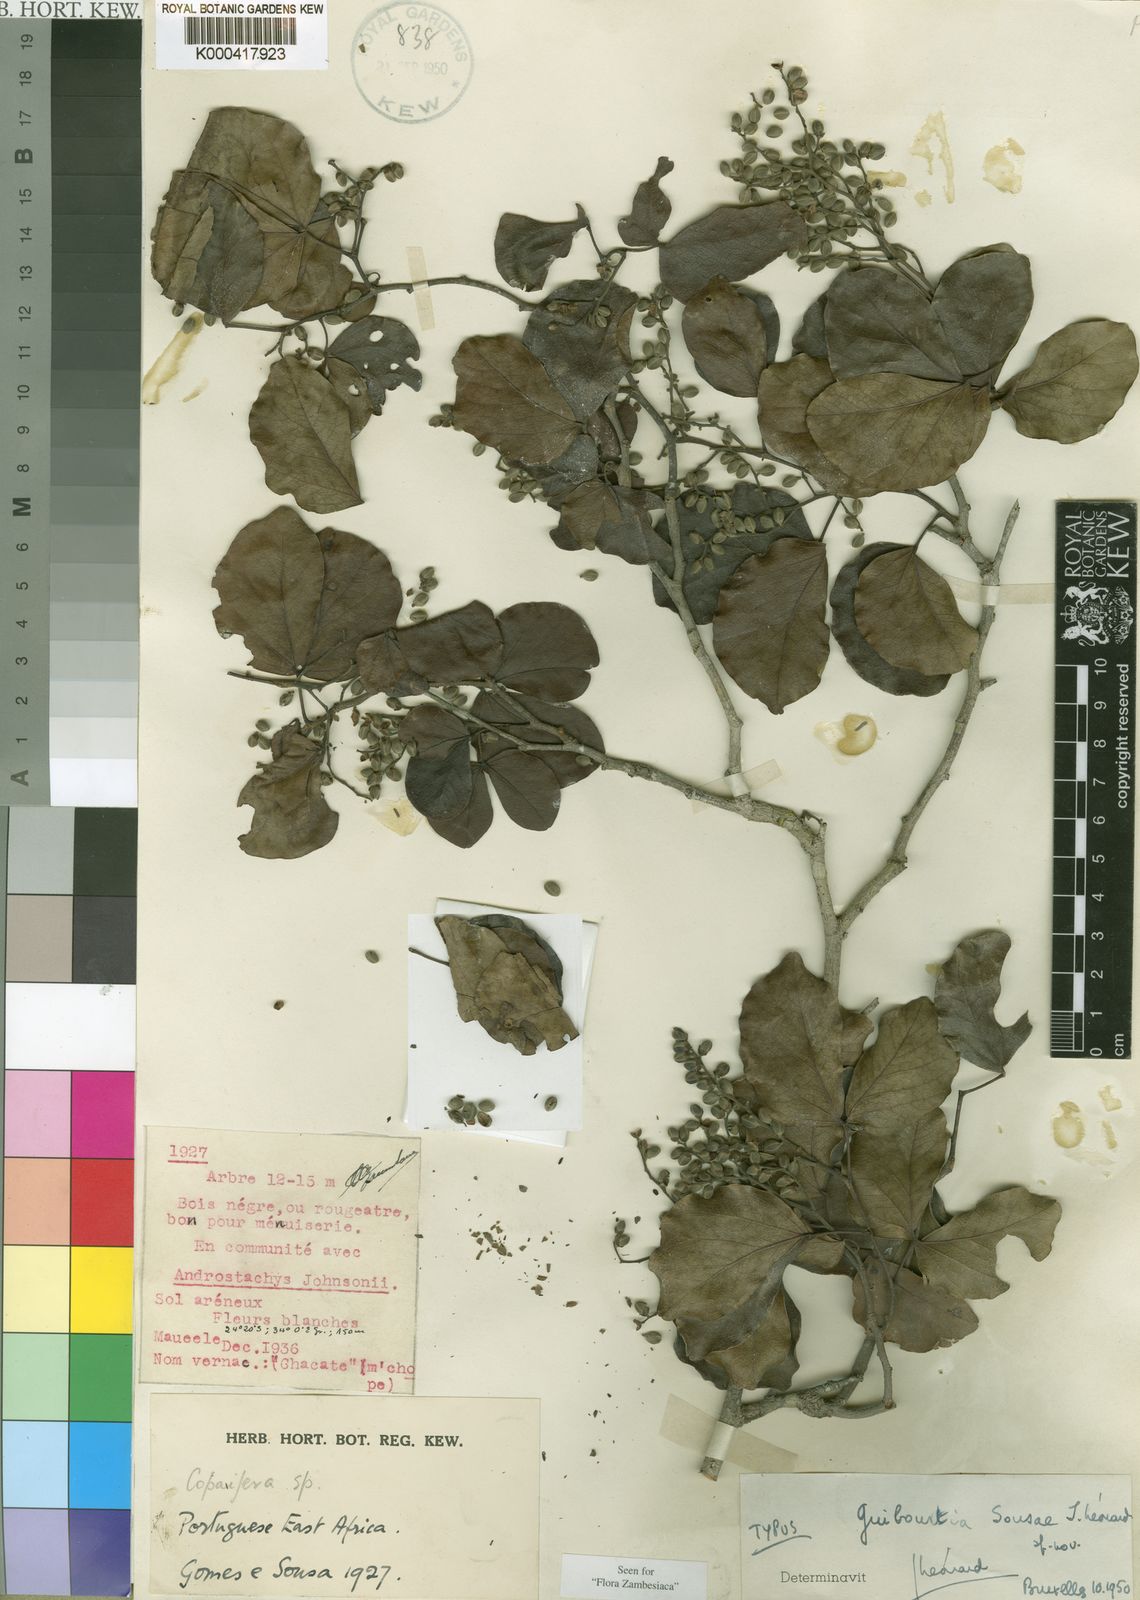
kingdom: Plantae
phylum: Tracheophyta
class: Magnoliopsida
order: Fabales
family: Fabaceae
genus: Guibourtia
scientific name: Guibourtia
